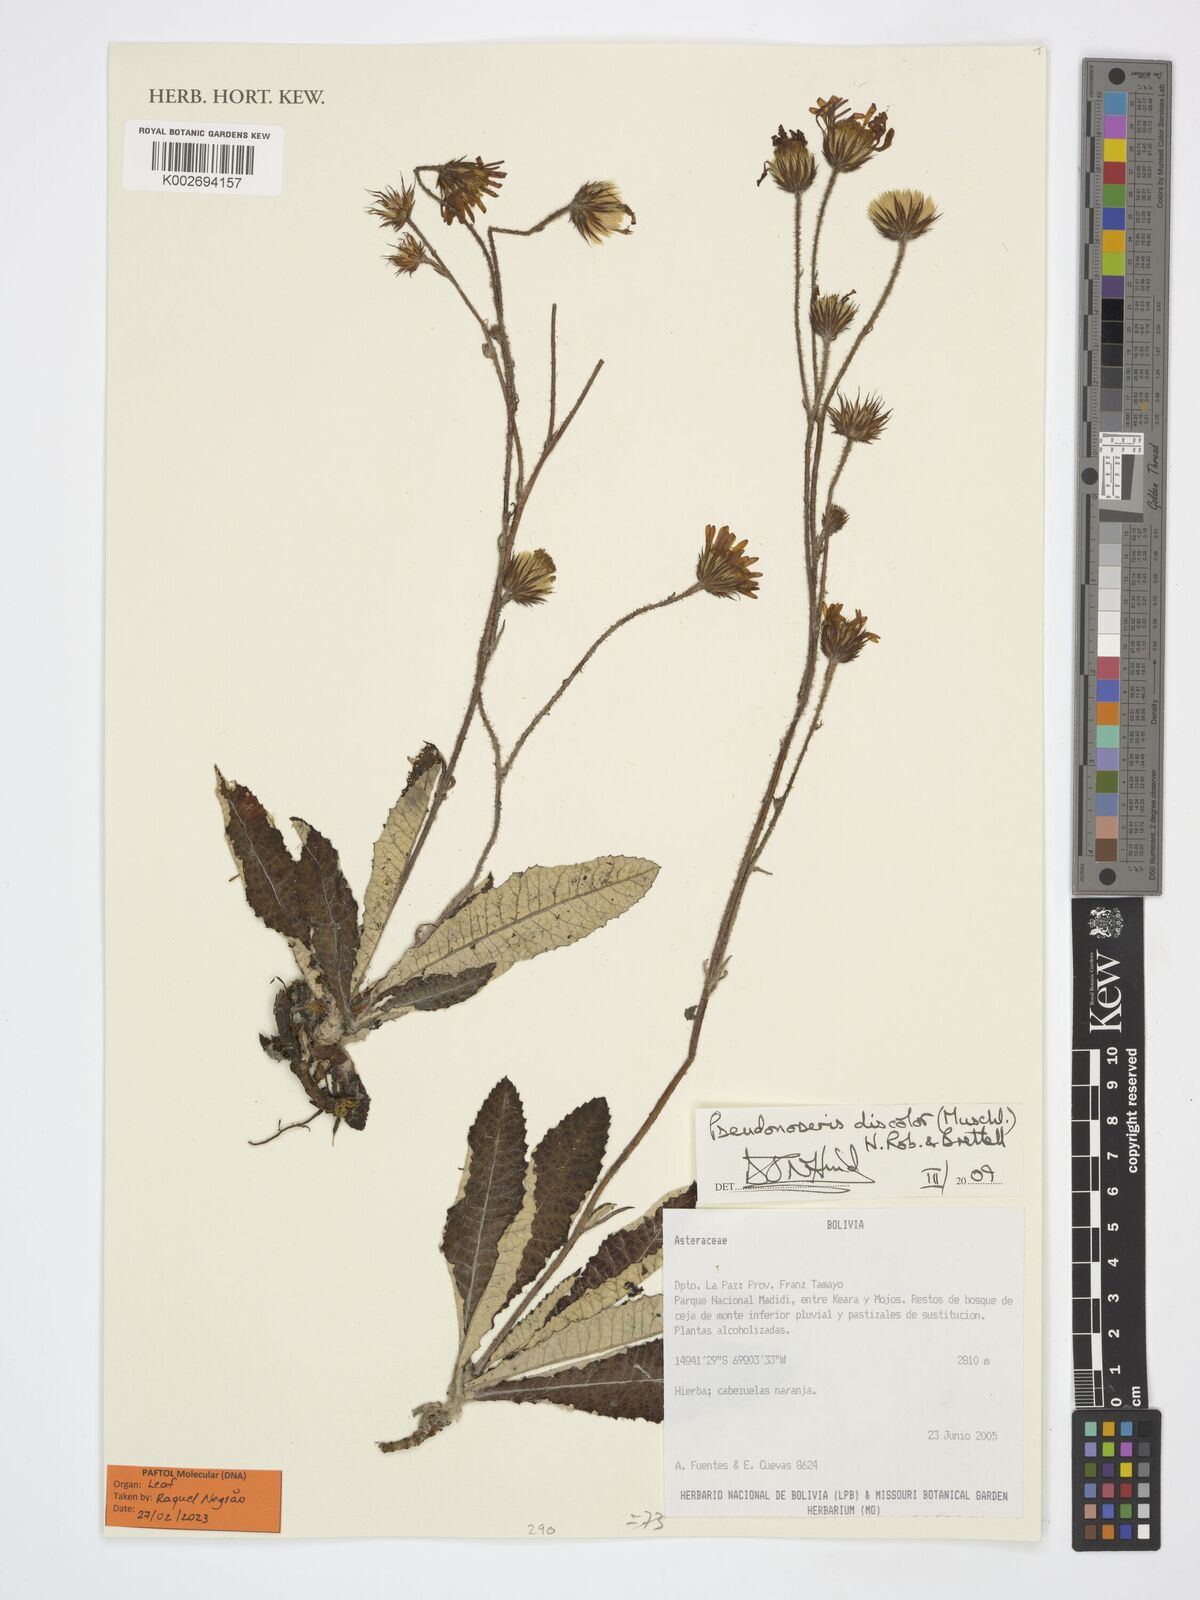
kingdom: Plantae
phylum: Tracheophyta
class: Magnoliopsida
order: Asterales
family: Asteraceae
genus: Pseudonoseris
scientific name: Pseudonoseris discolor
